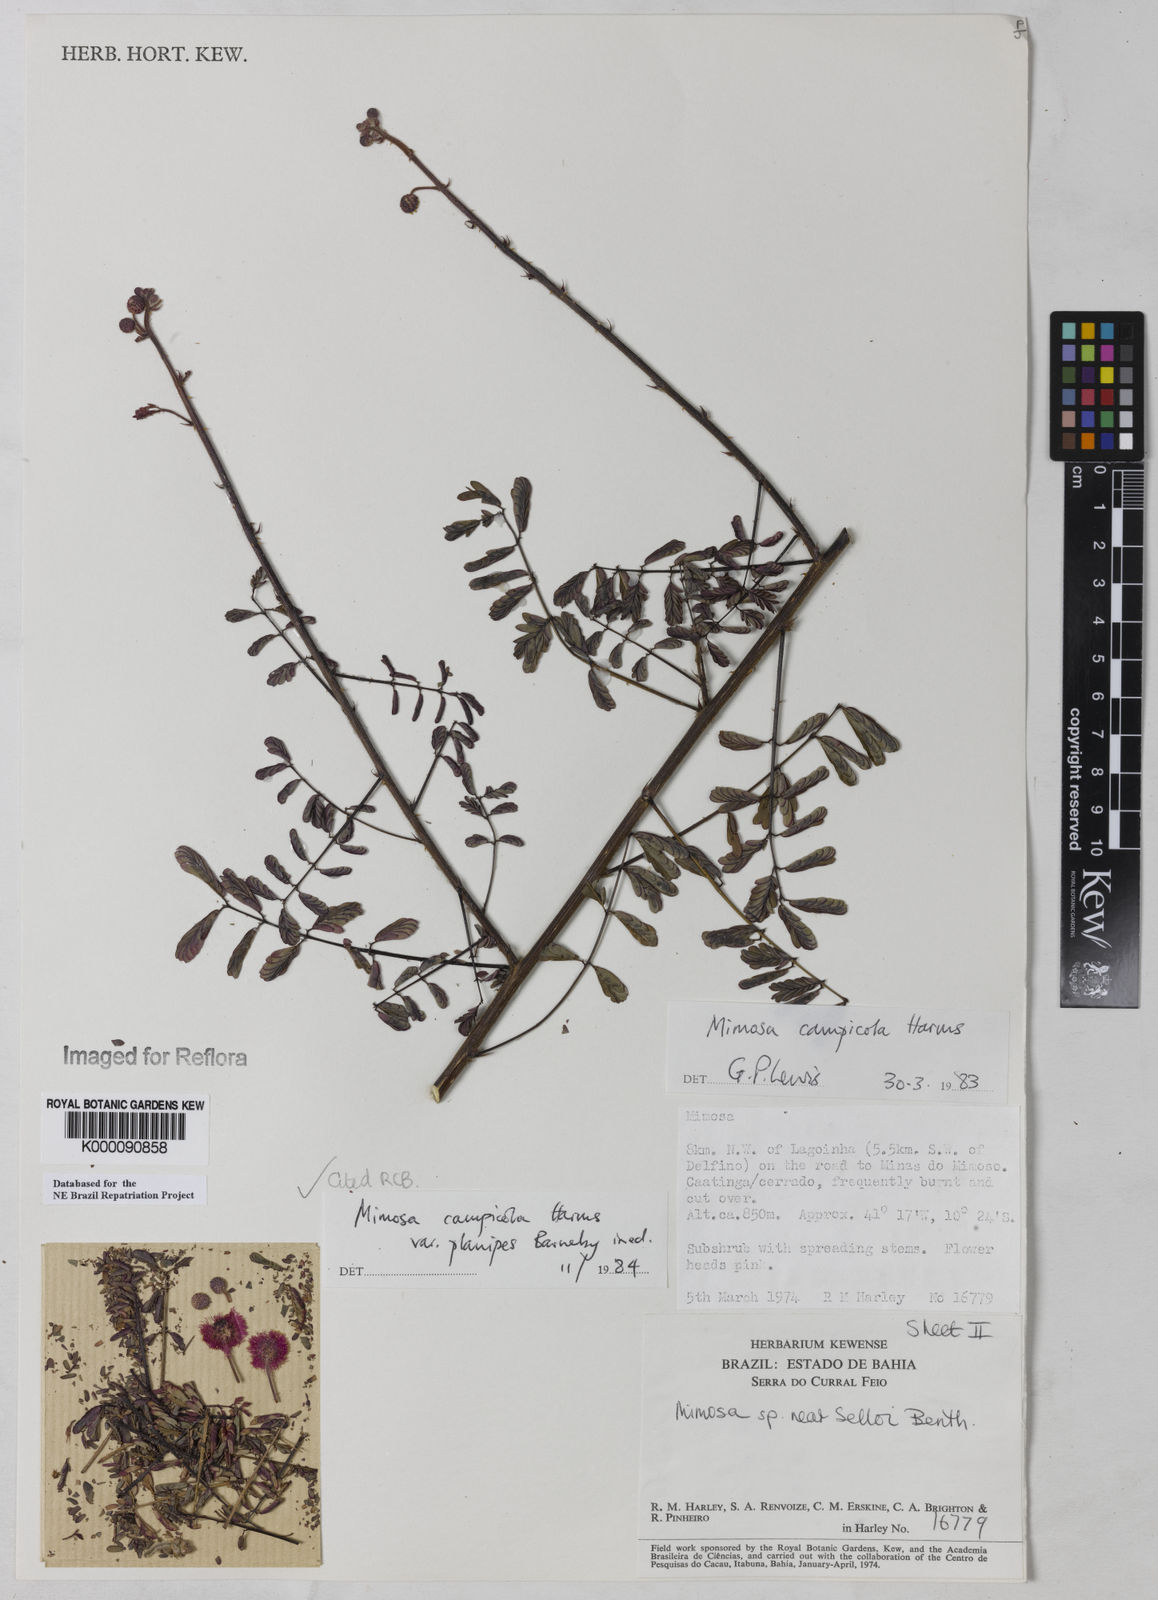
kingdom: Plantae
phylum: Tracheophyta
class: Magnoliopsida
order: Fabales
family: Fabaceae
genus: Mimosa
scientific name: Mimosa campicola
